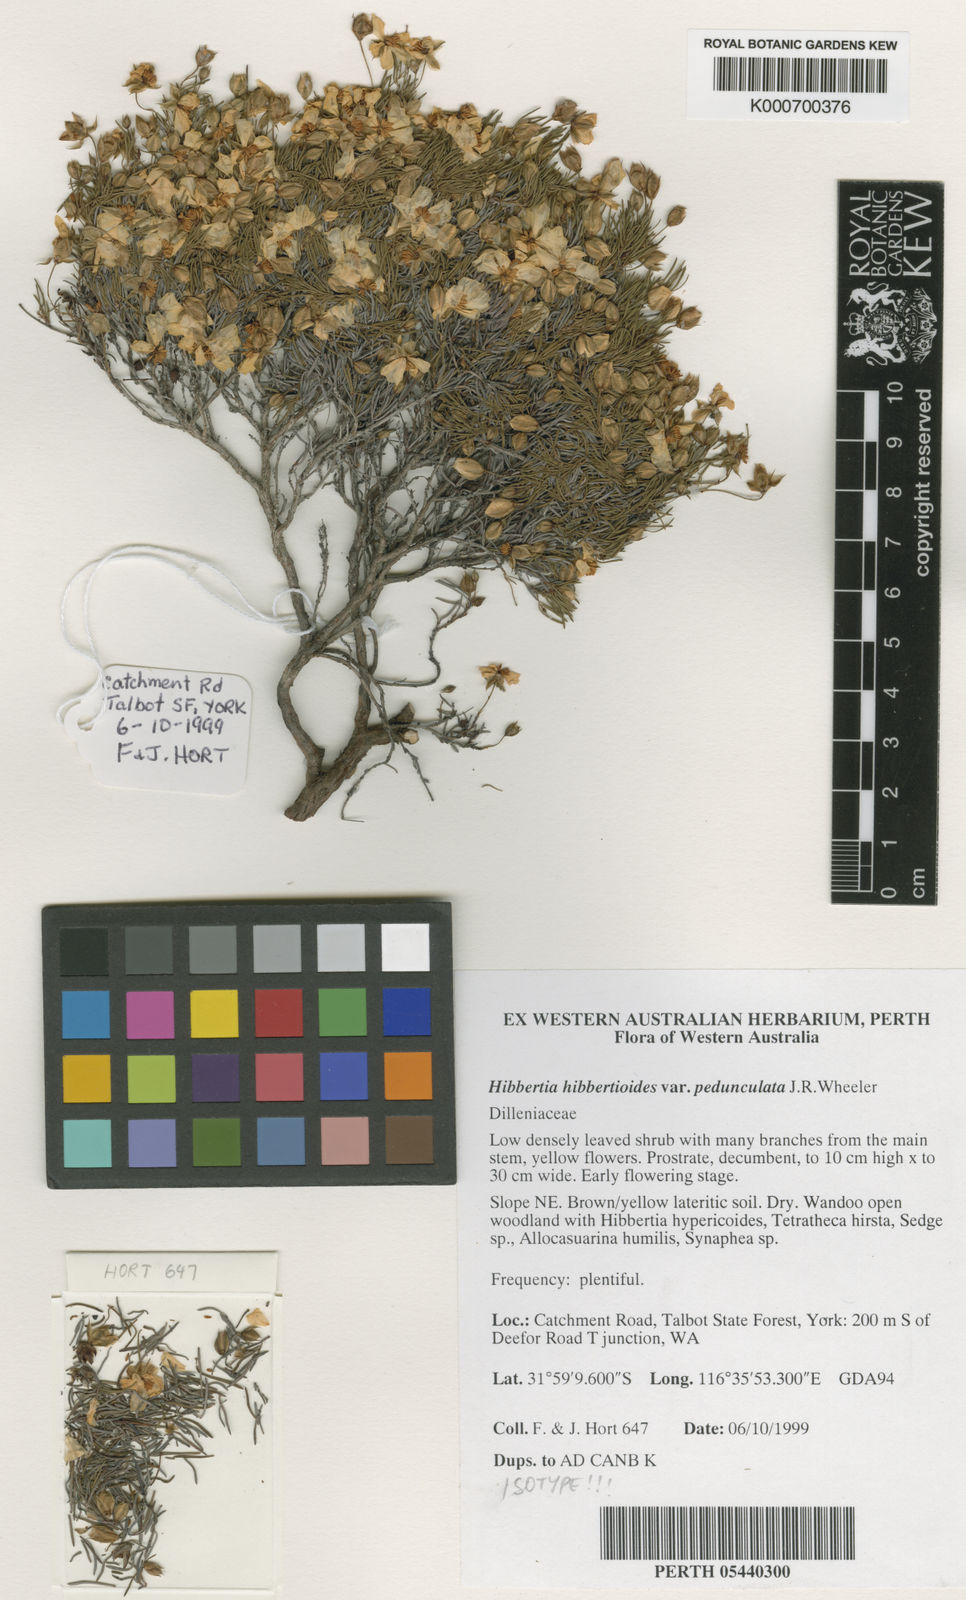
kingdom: Plantae
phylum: Tracheophyta
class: Magnoliopsida
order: Dilleniales
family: Dilleniaceae
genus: Hibbertia
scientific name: Hibbertia hibbertioides
